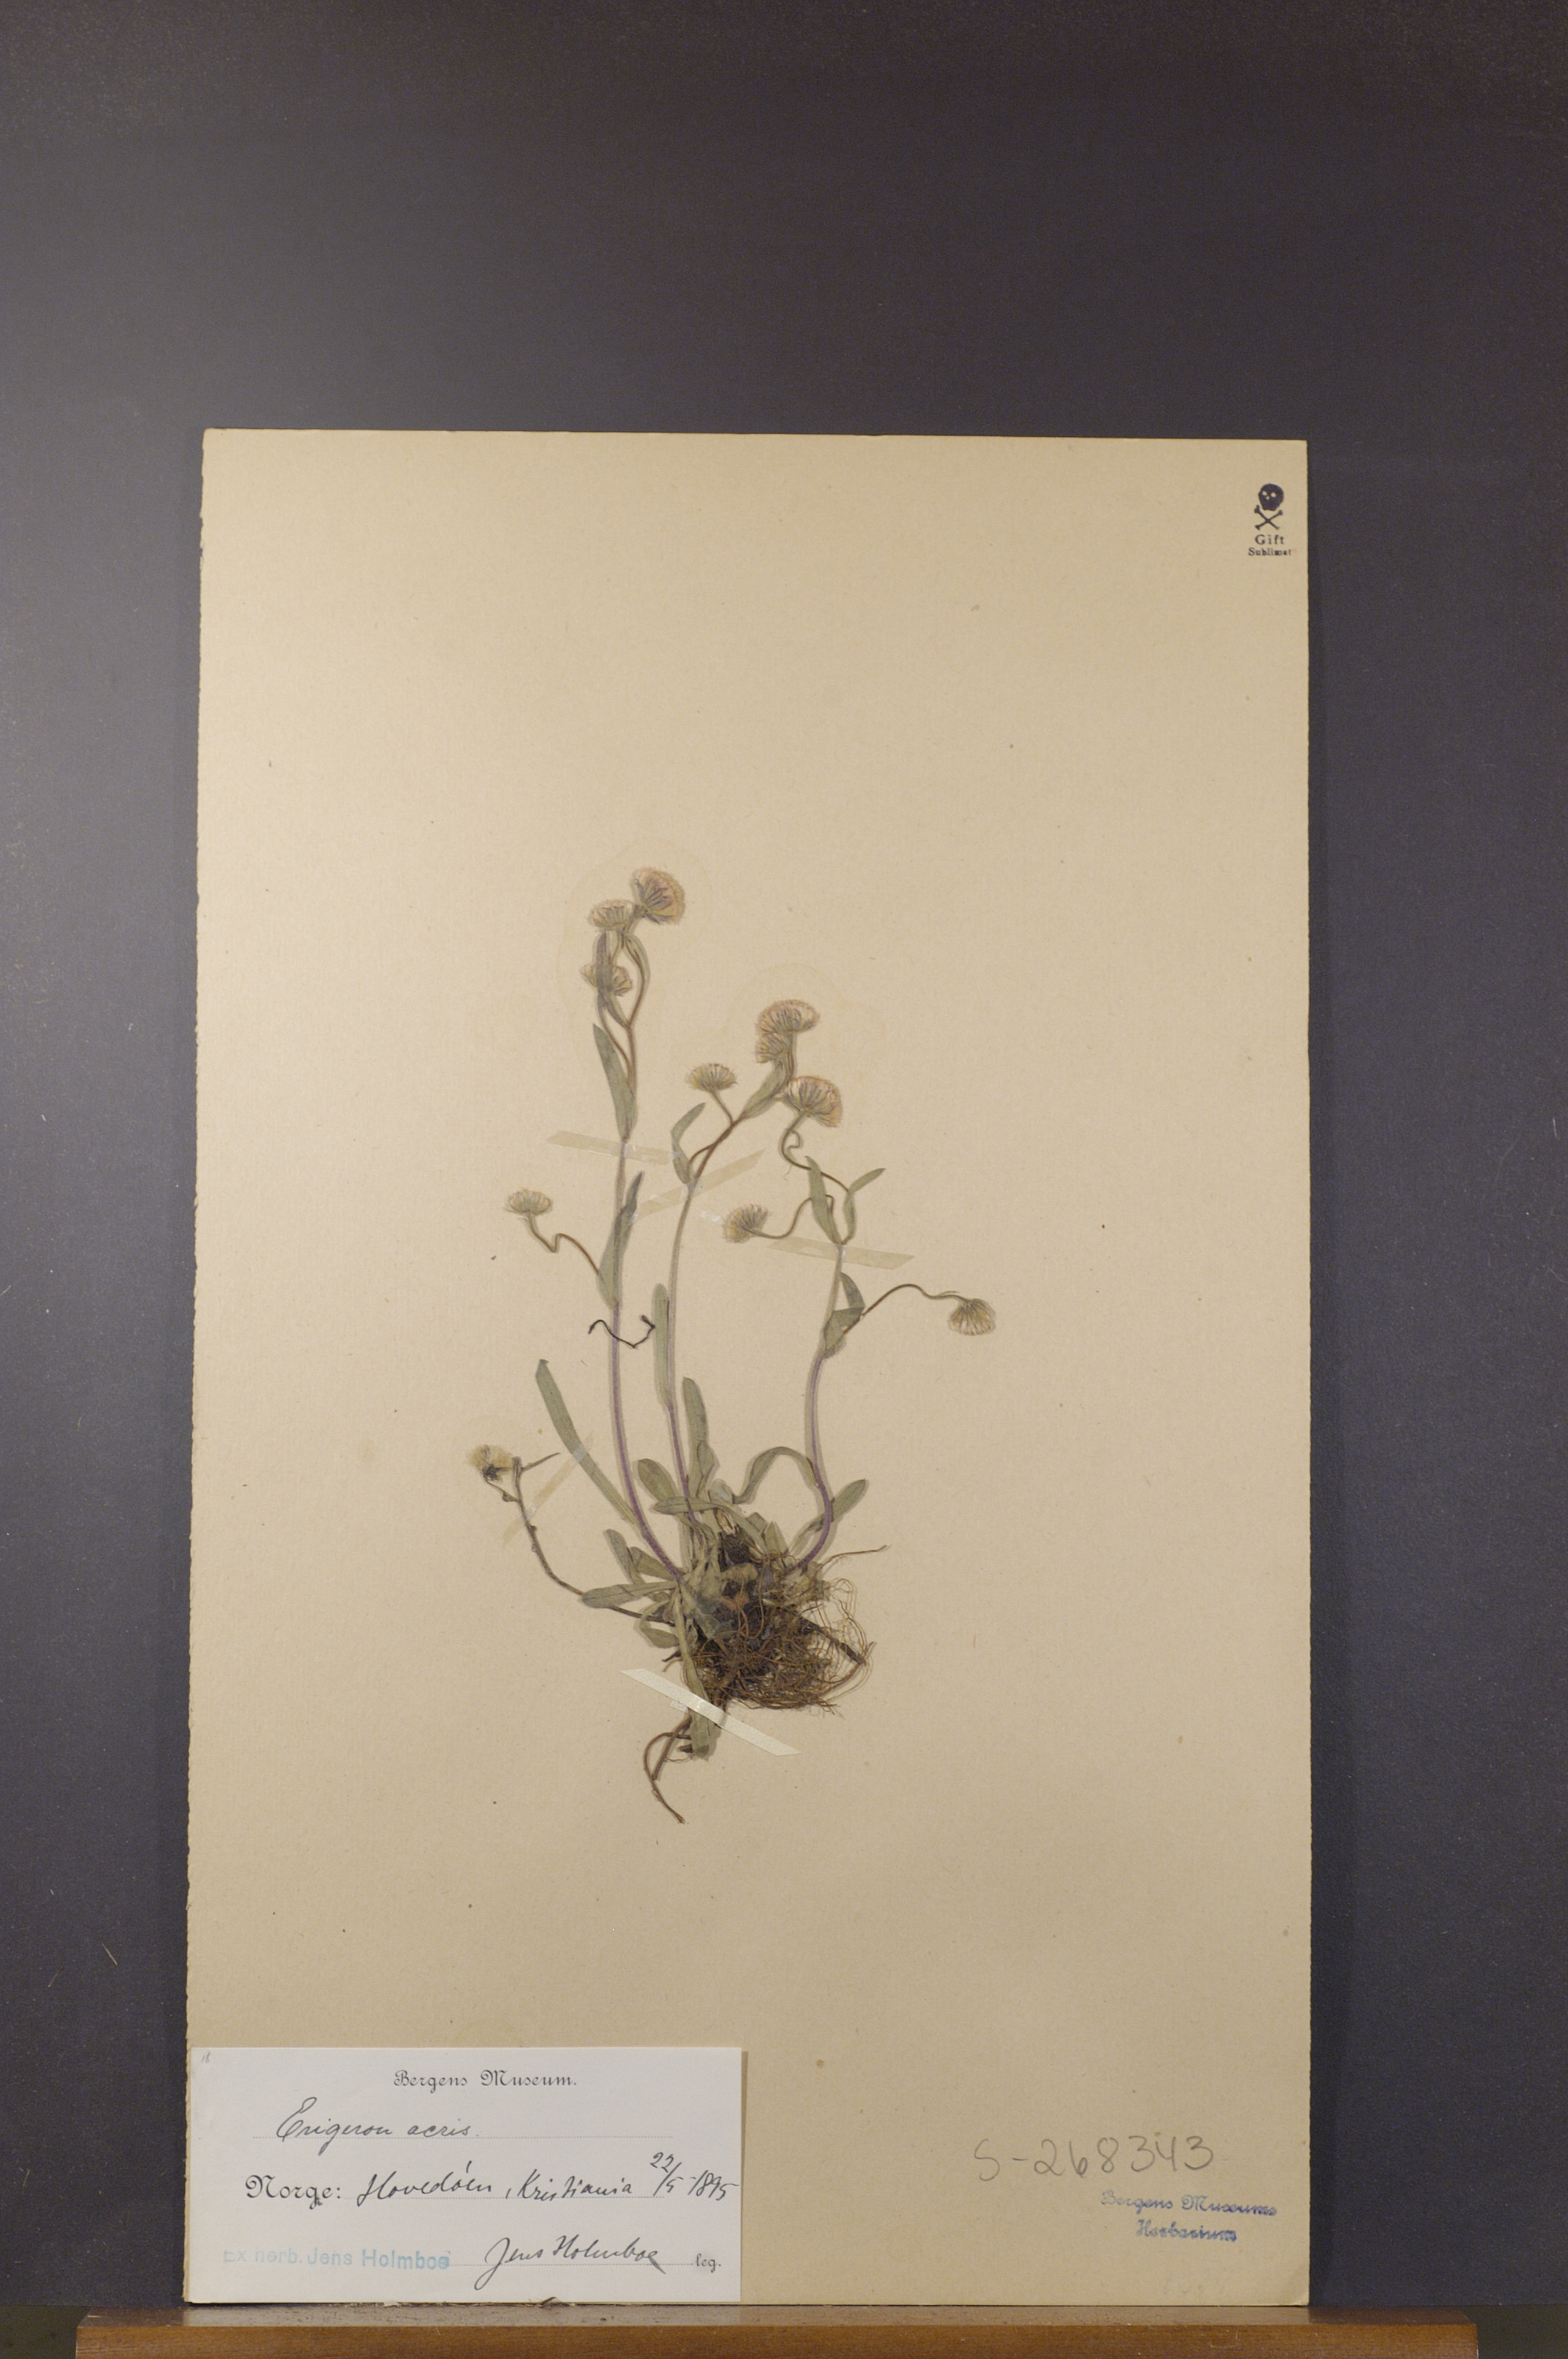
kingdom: Plantae
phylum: Tracheophyta
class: Magnoliopsida
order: Asterales
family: Asteraceae
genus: Erigeron
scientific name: Erigeron acris
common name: Blue fleabane
